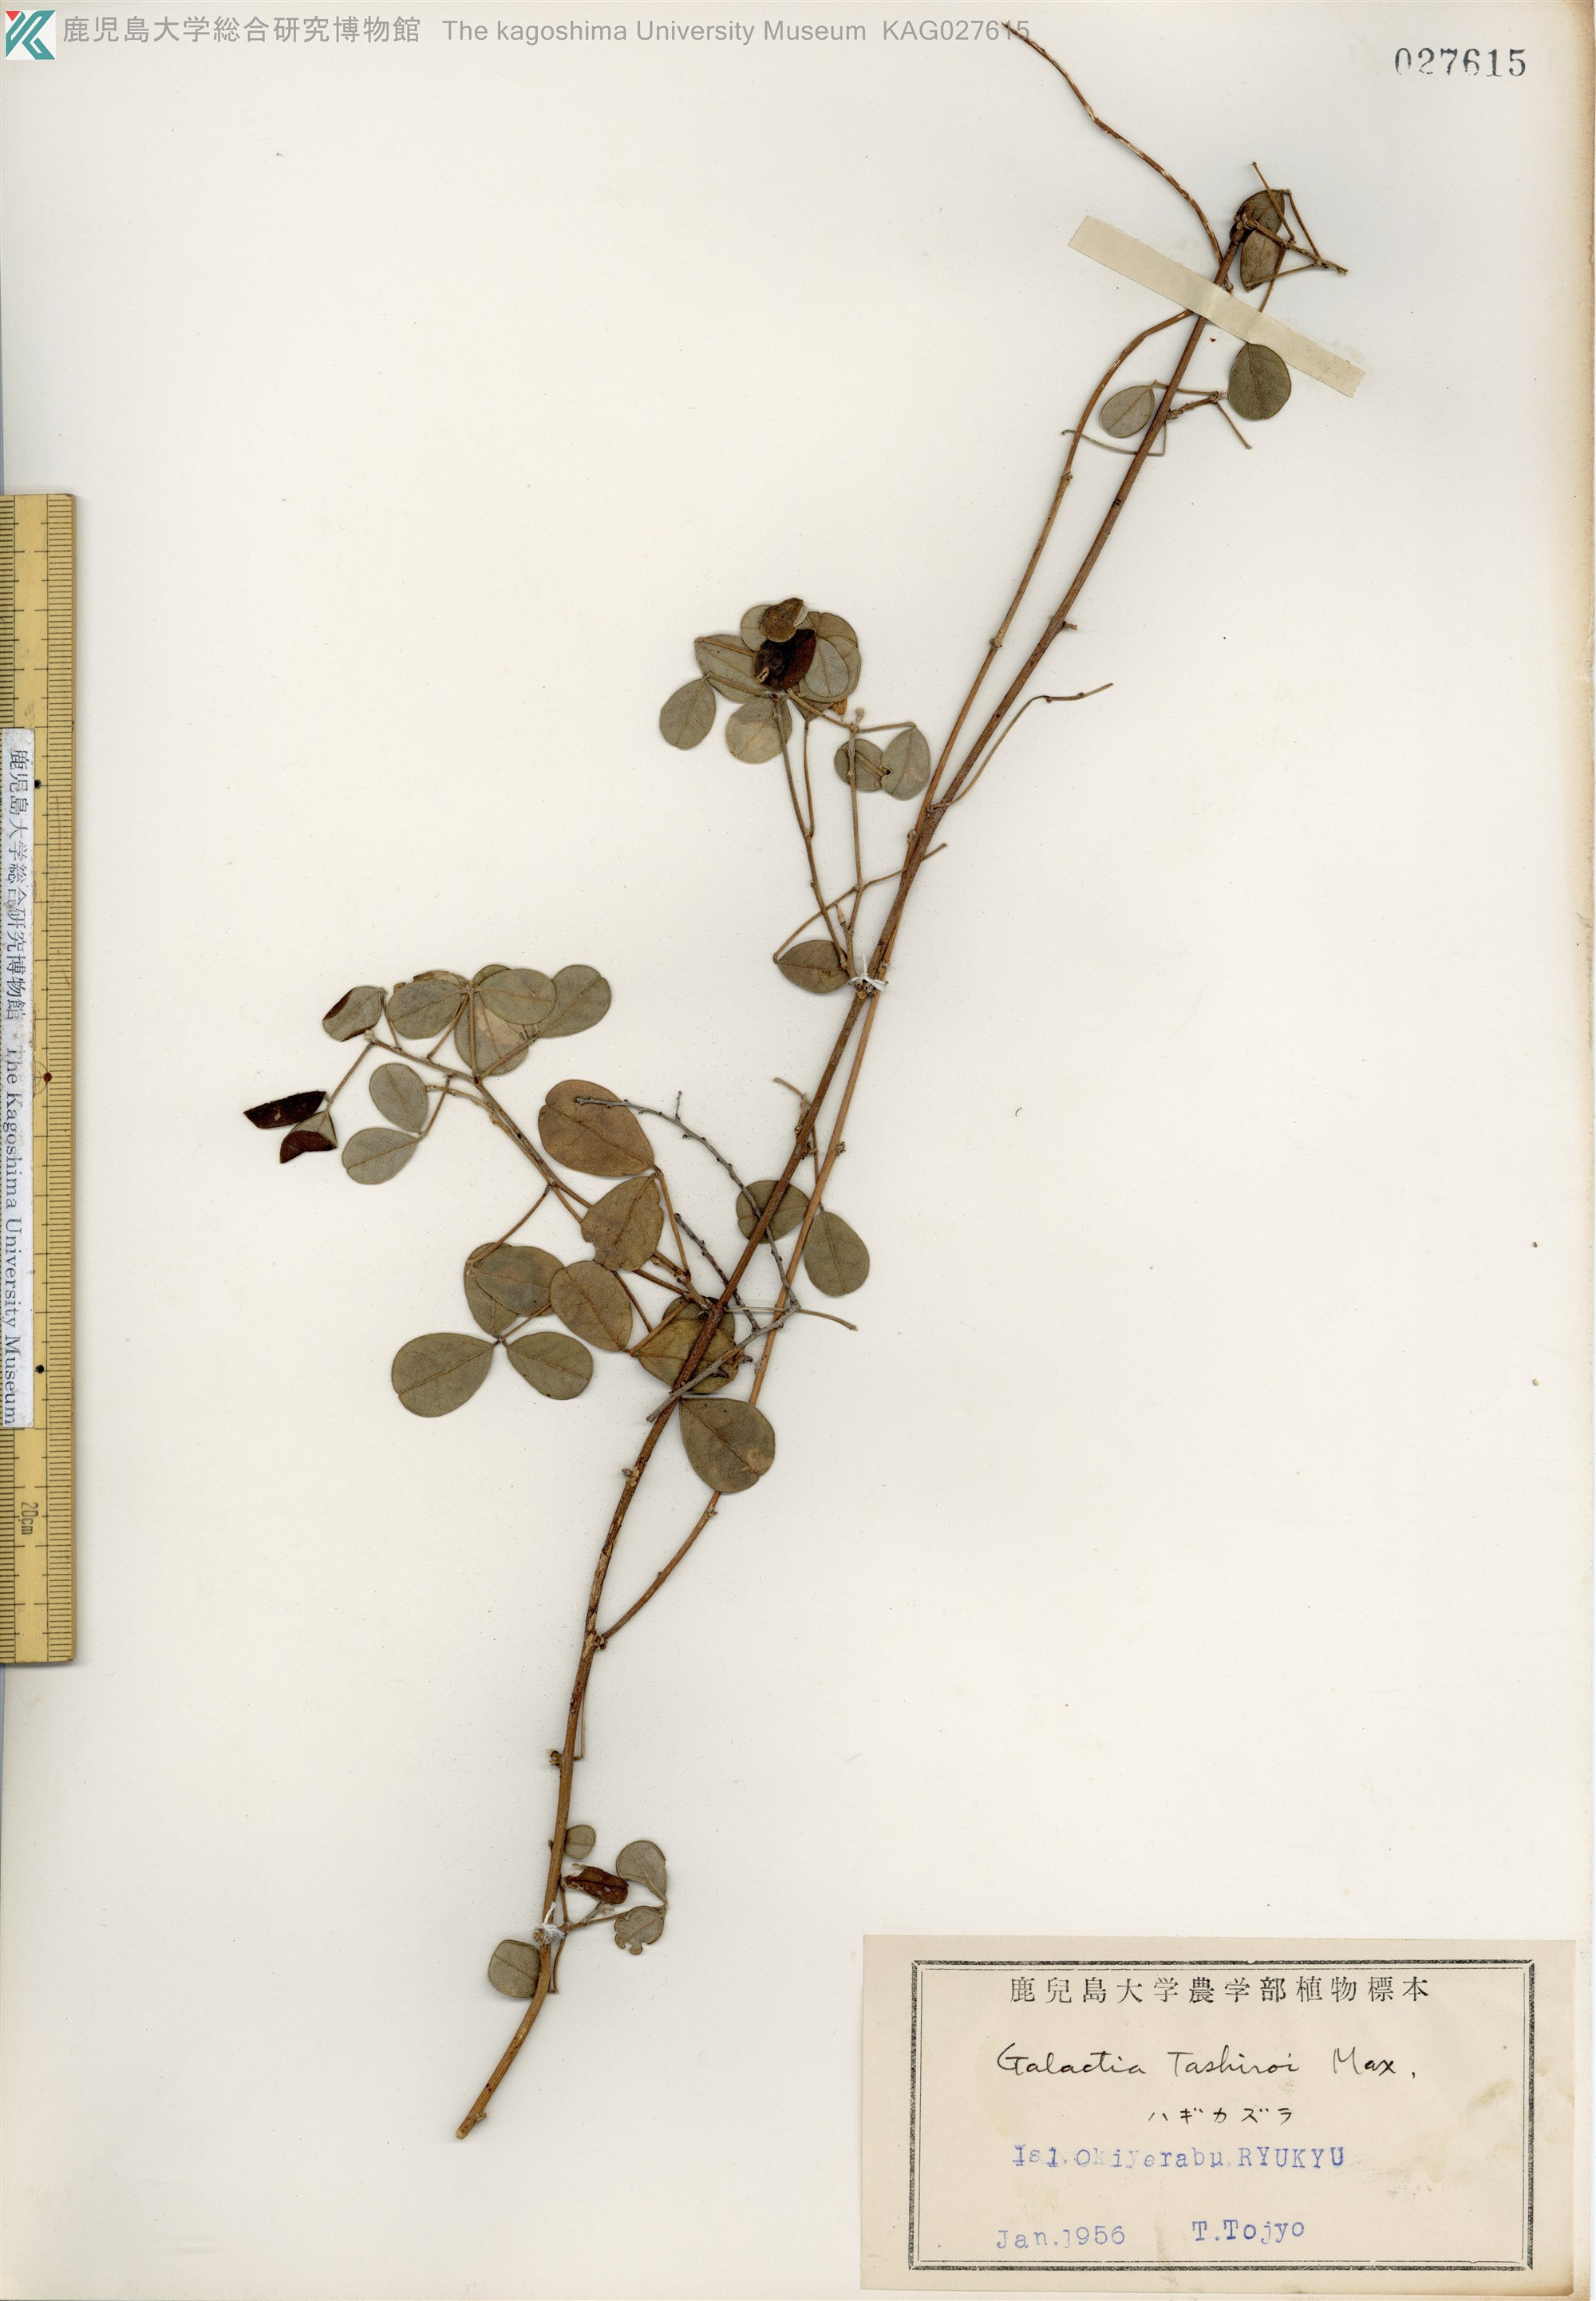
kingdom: Plantae
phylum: Tracheophyta
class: Magnoliopsida
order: Fabales
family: Fabaceae
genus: Galactia
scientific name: Galactia tashiroi
